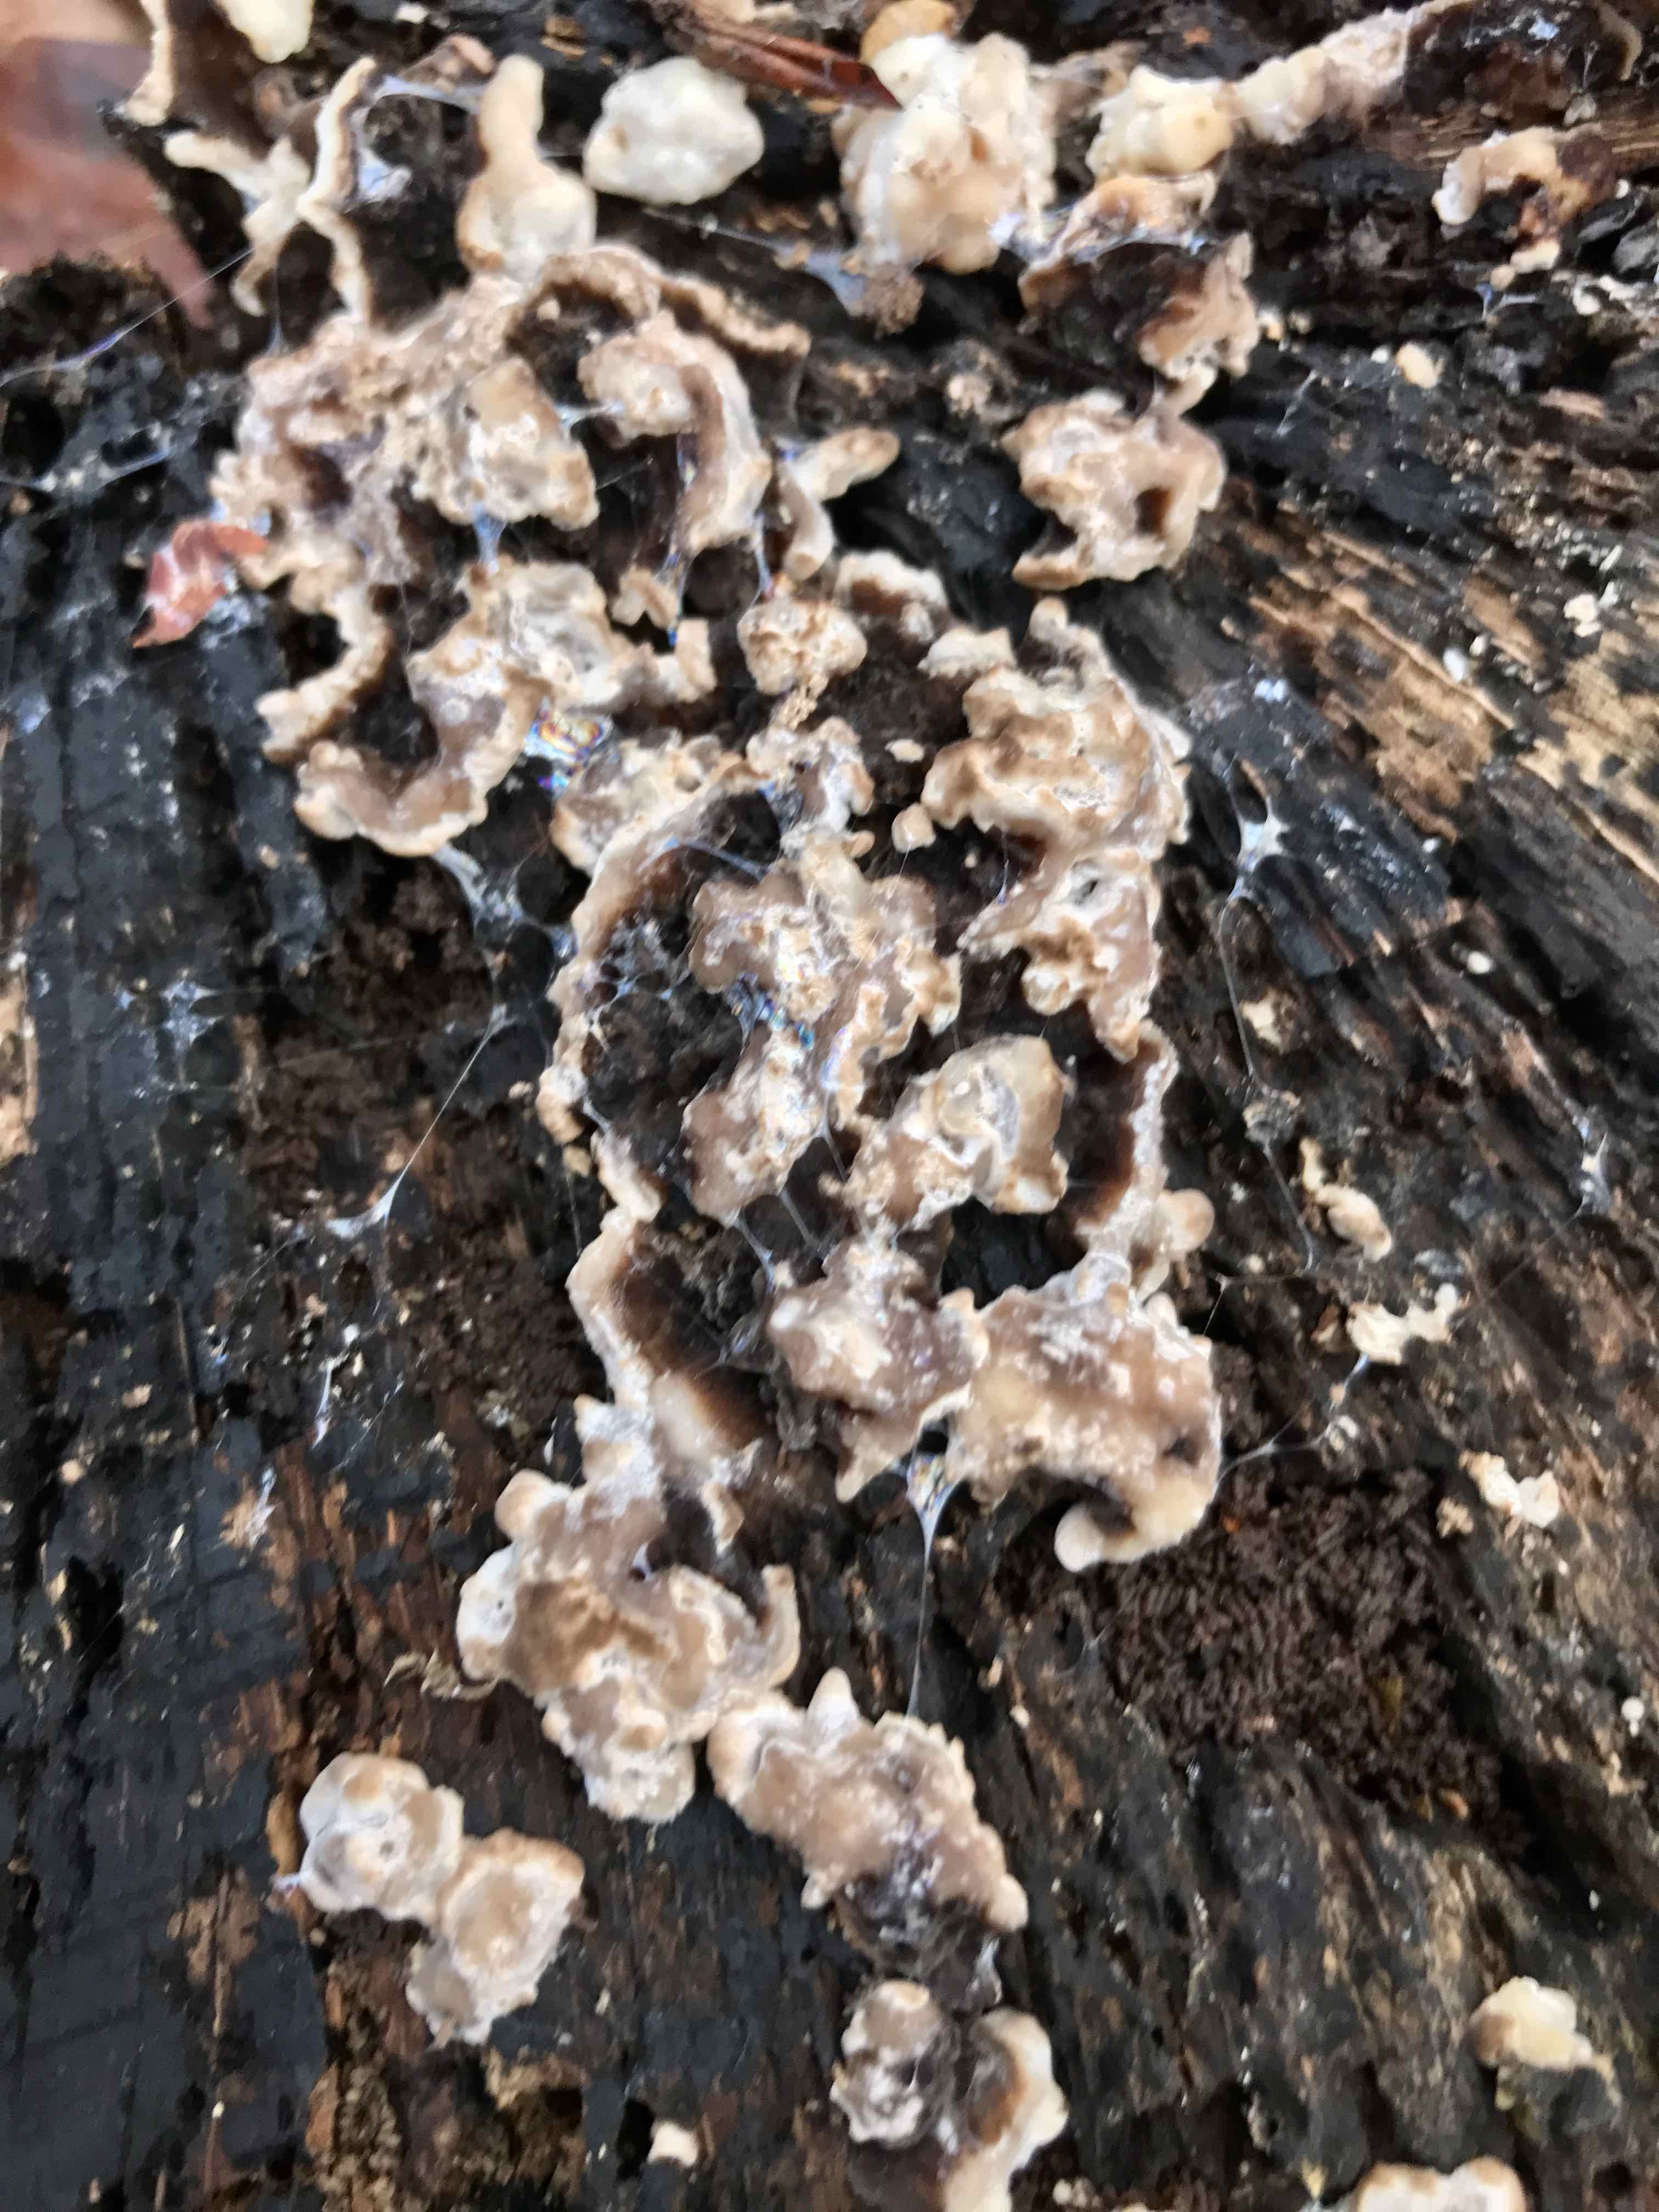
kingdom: Fungi
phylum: Ascomycota
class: Sordariomycetes
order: Xylariales
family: Xylariaceae
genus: Kretzschmaria
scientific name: Kretzschmaria deusta
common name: stor kulsvamp
